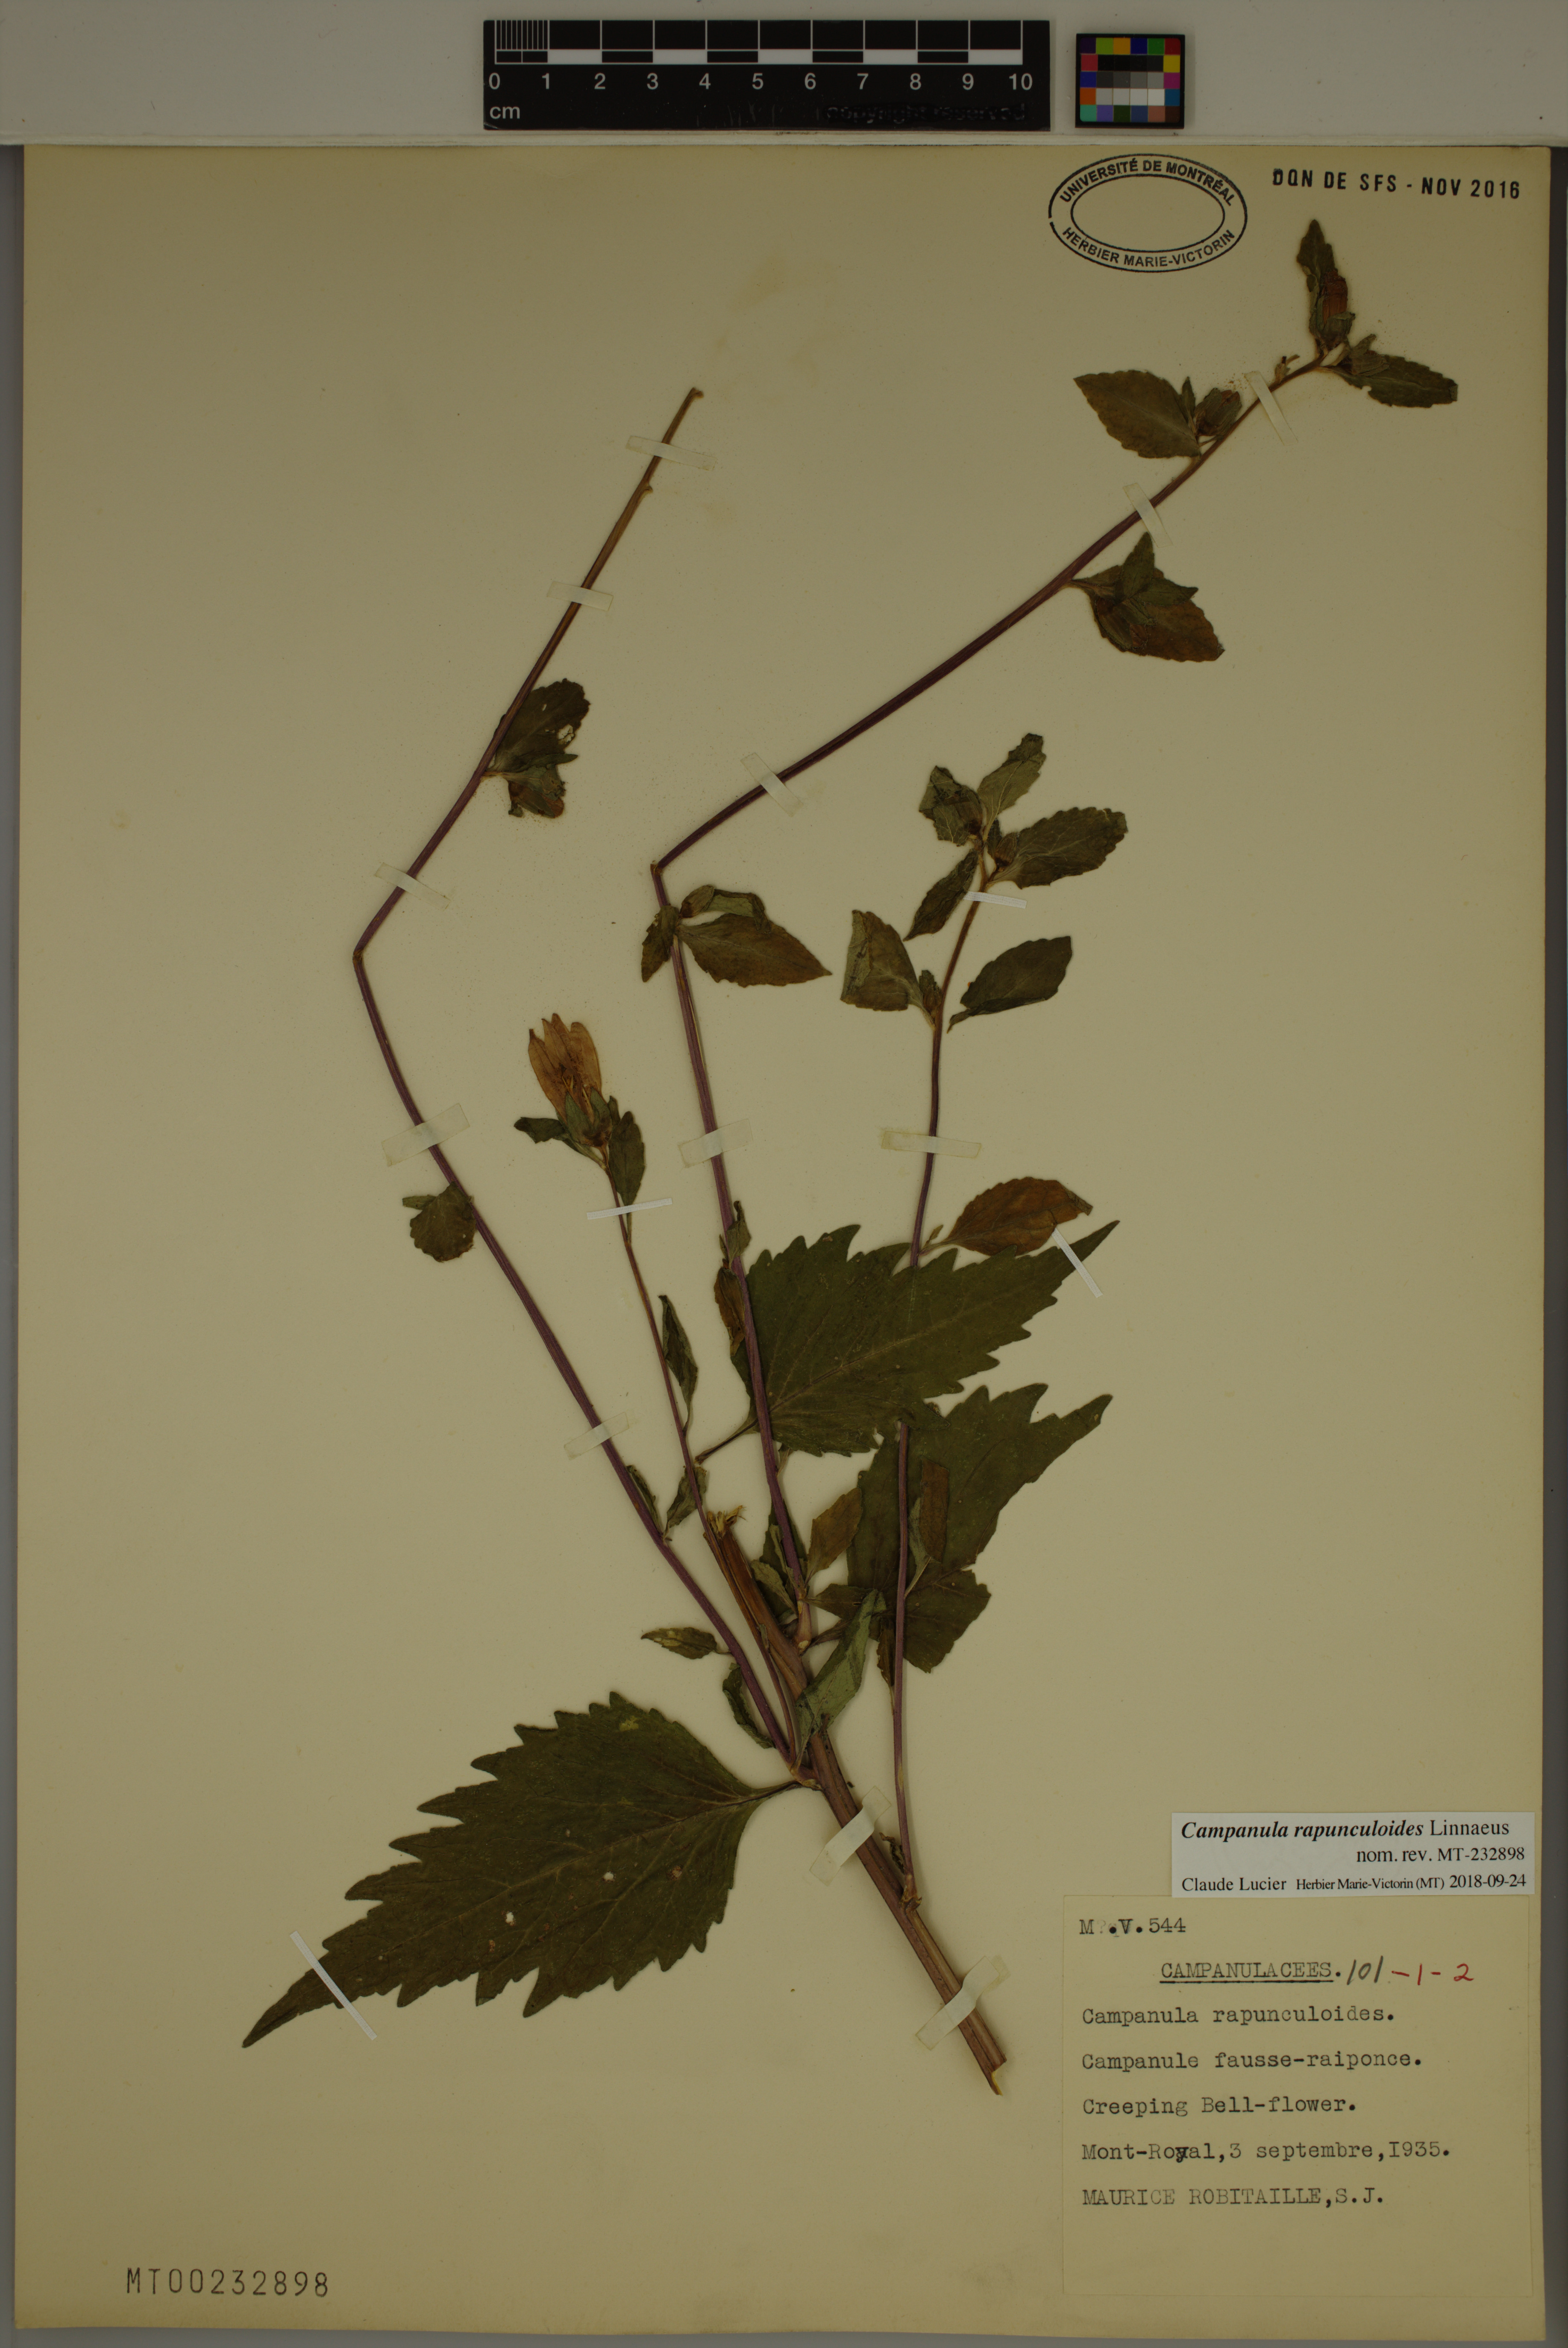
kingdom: Plantae
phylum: Tracheophyta
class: Magnoliopsida
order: Asterales
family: Campanulaceae
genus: Campanula
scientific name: Campanula rapunculoides
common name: Creeping bellflower
